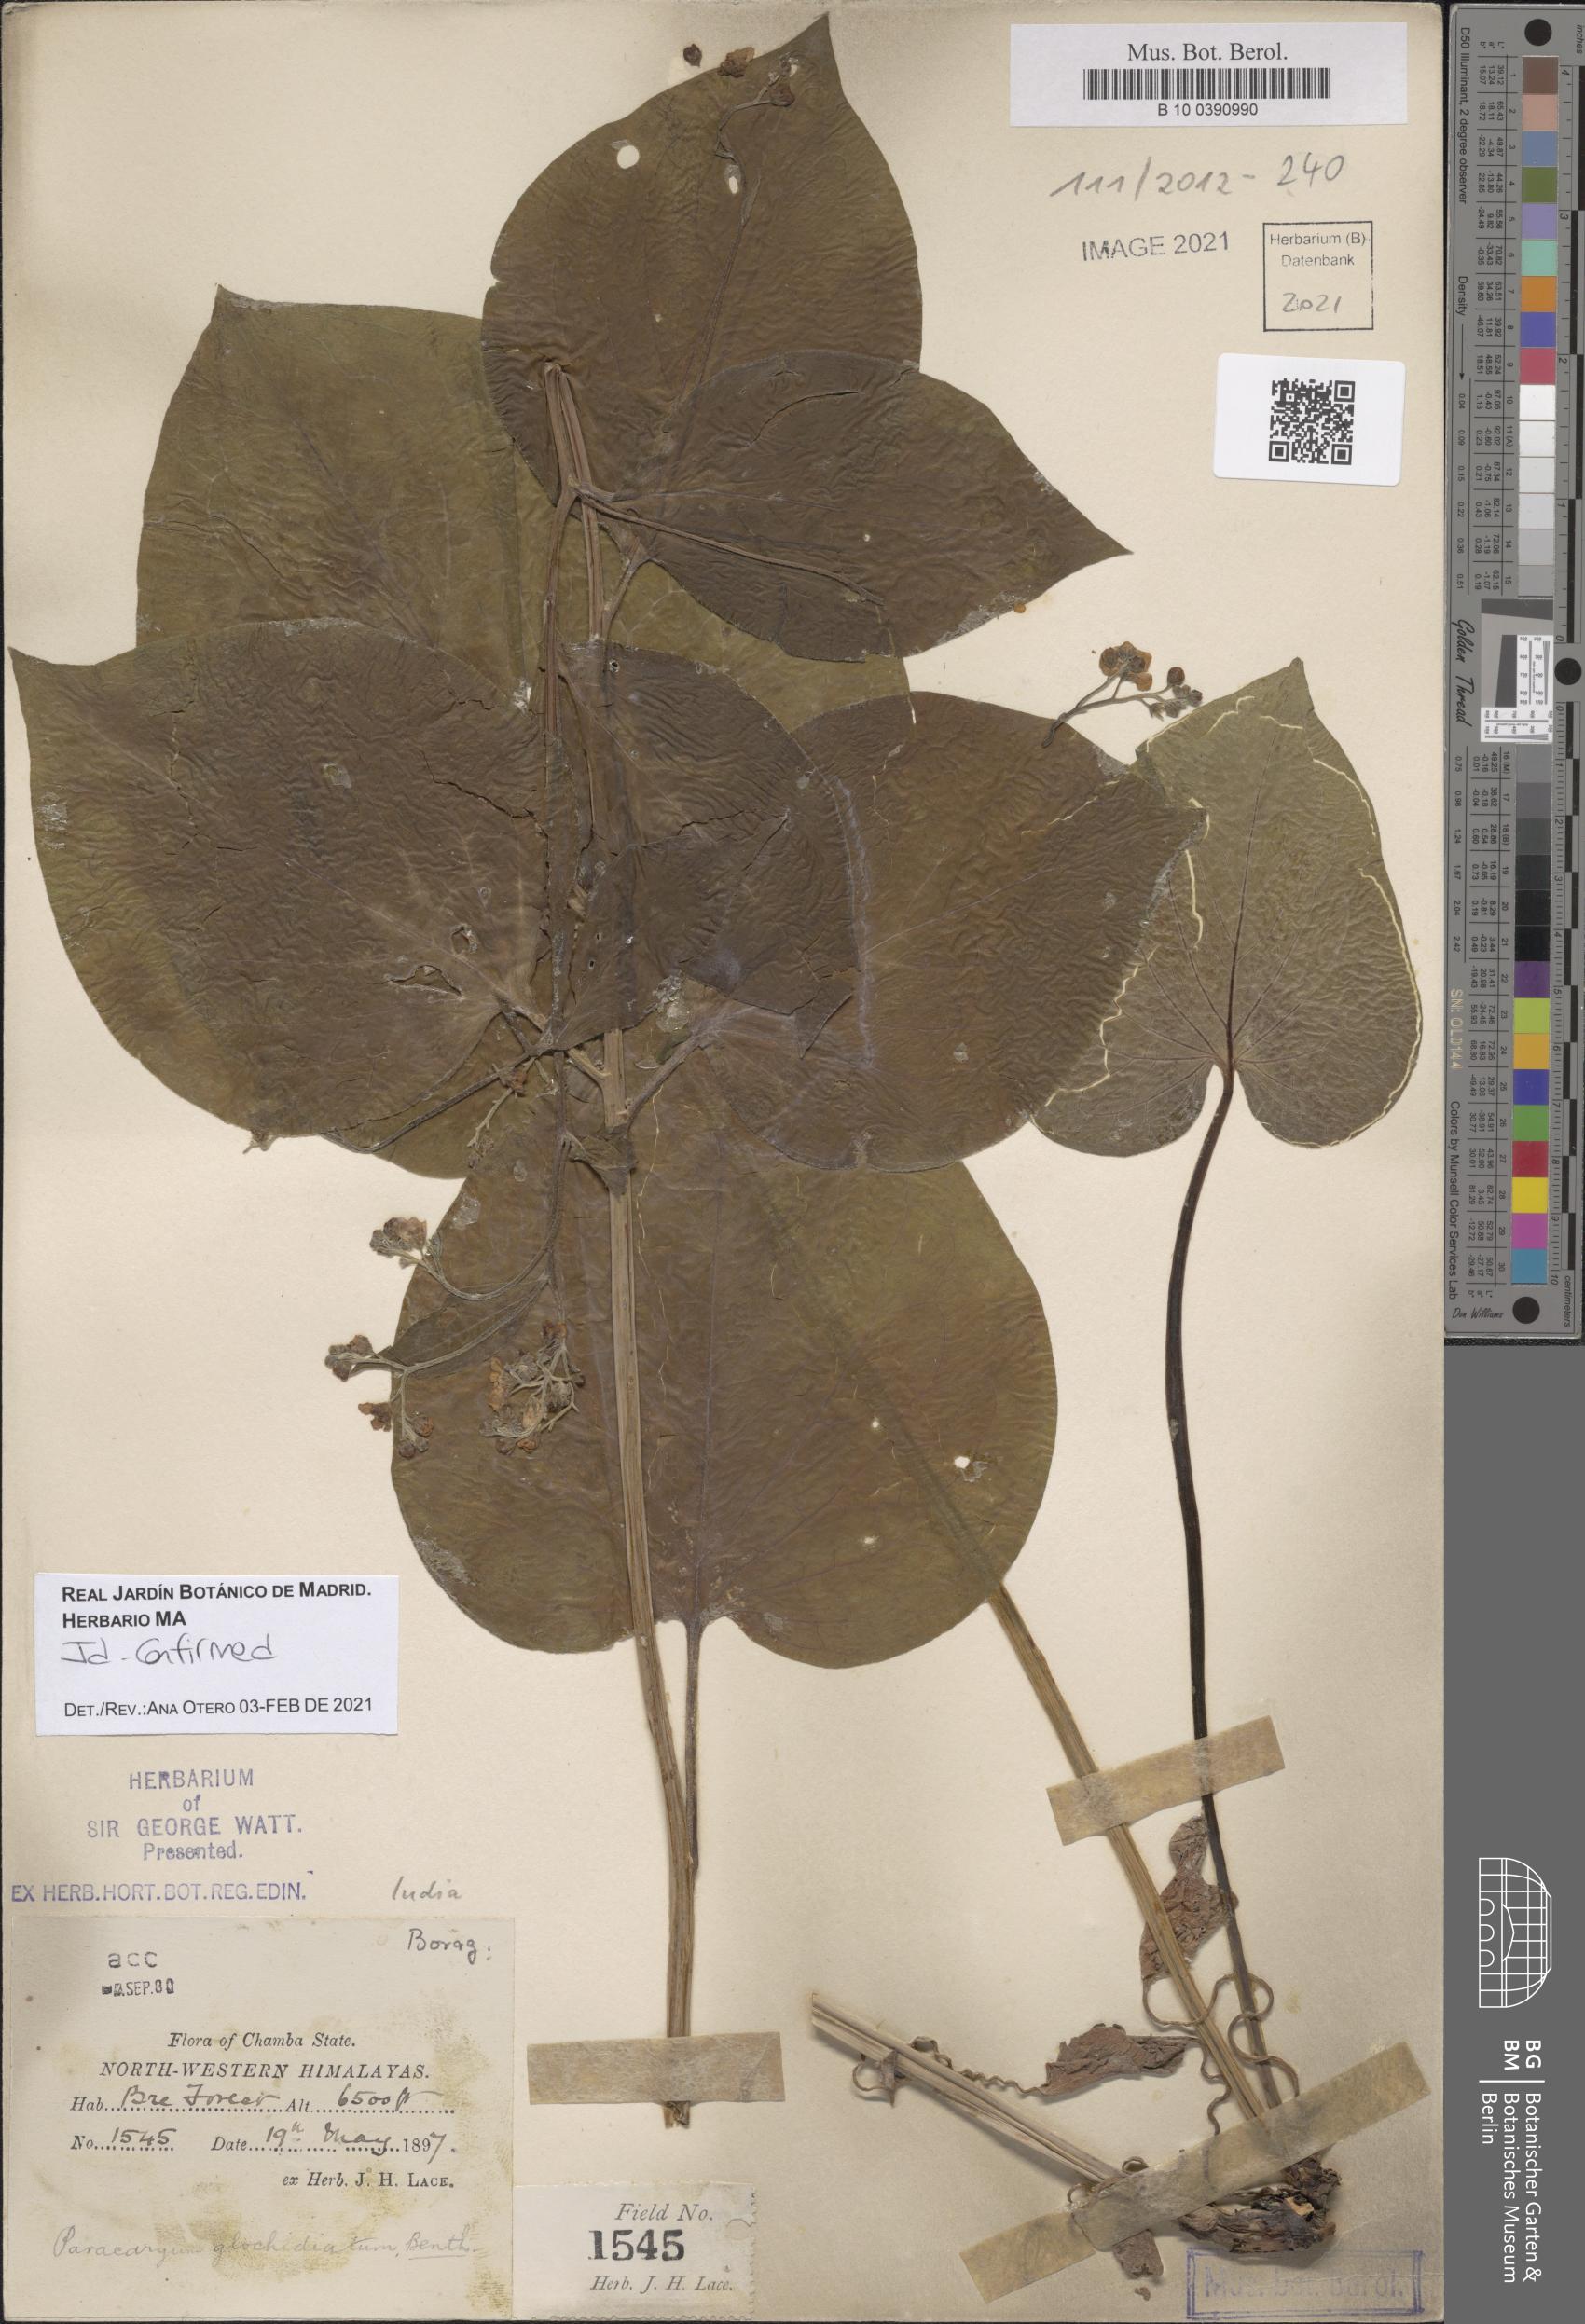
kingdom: Plantae
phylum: Tracheophyta
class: Magnoliopsida
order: Boraginales
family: Boraginaceae
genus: Microparacaryum
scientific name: Microparacaryum intermedium
